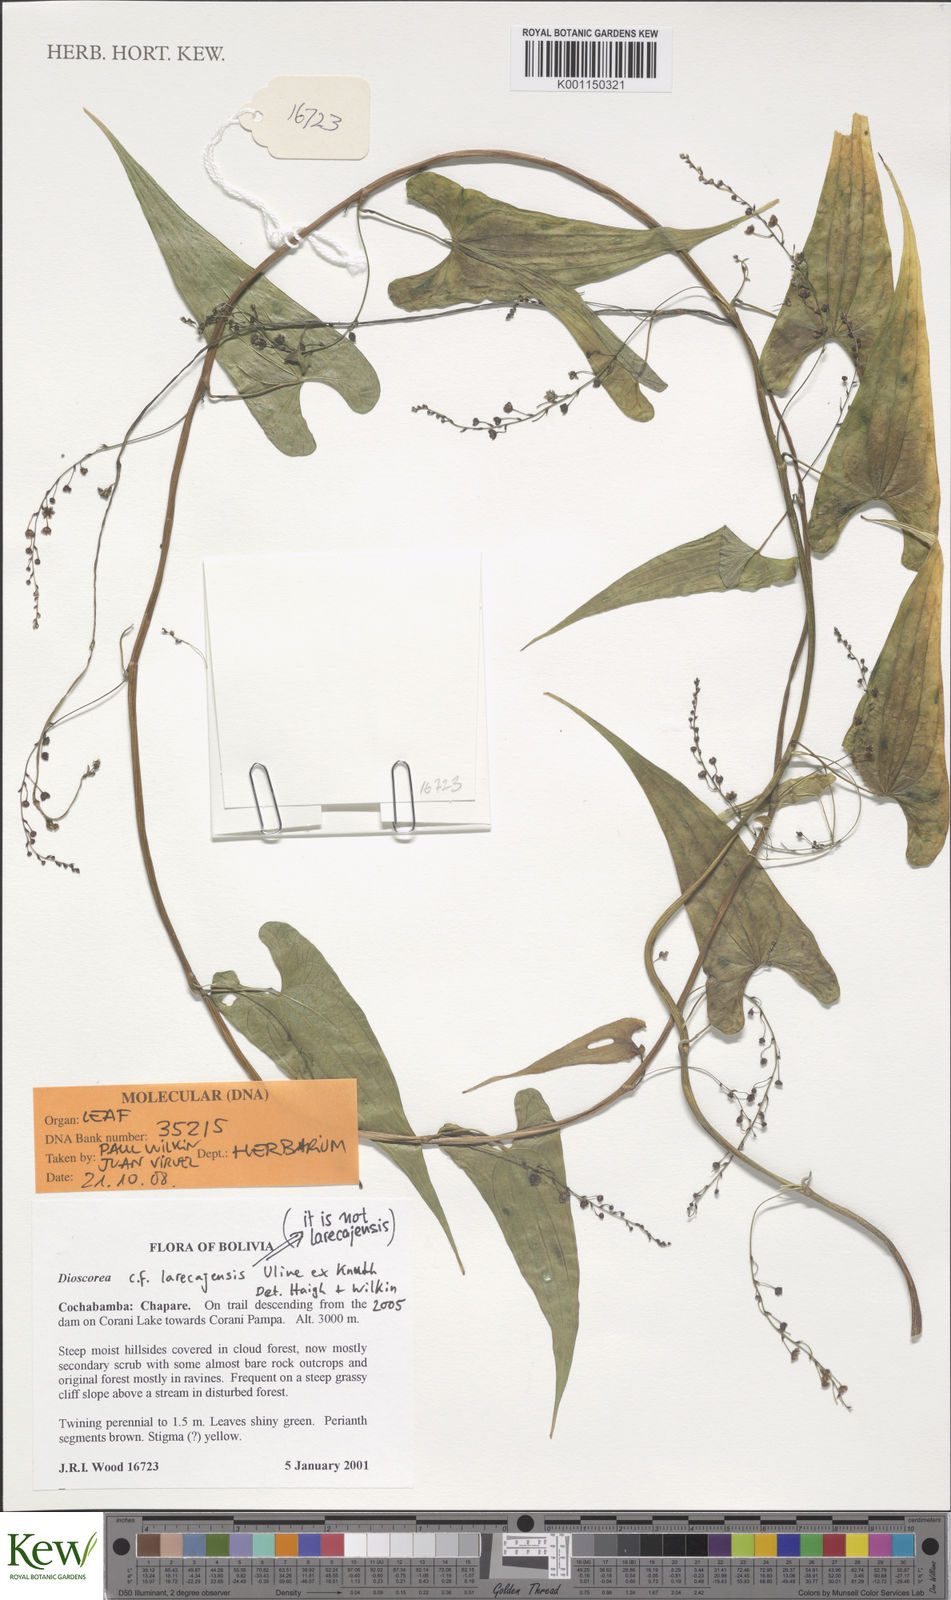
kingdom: Plantae
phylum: Tracheophyta
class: Liliopsida
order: Dioscoreales
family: Dioscoreaceae
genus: Dioscorea
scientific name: Dioscorea hieronymi
